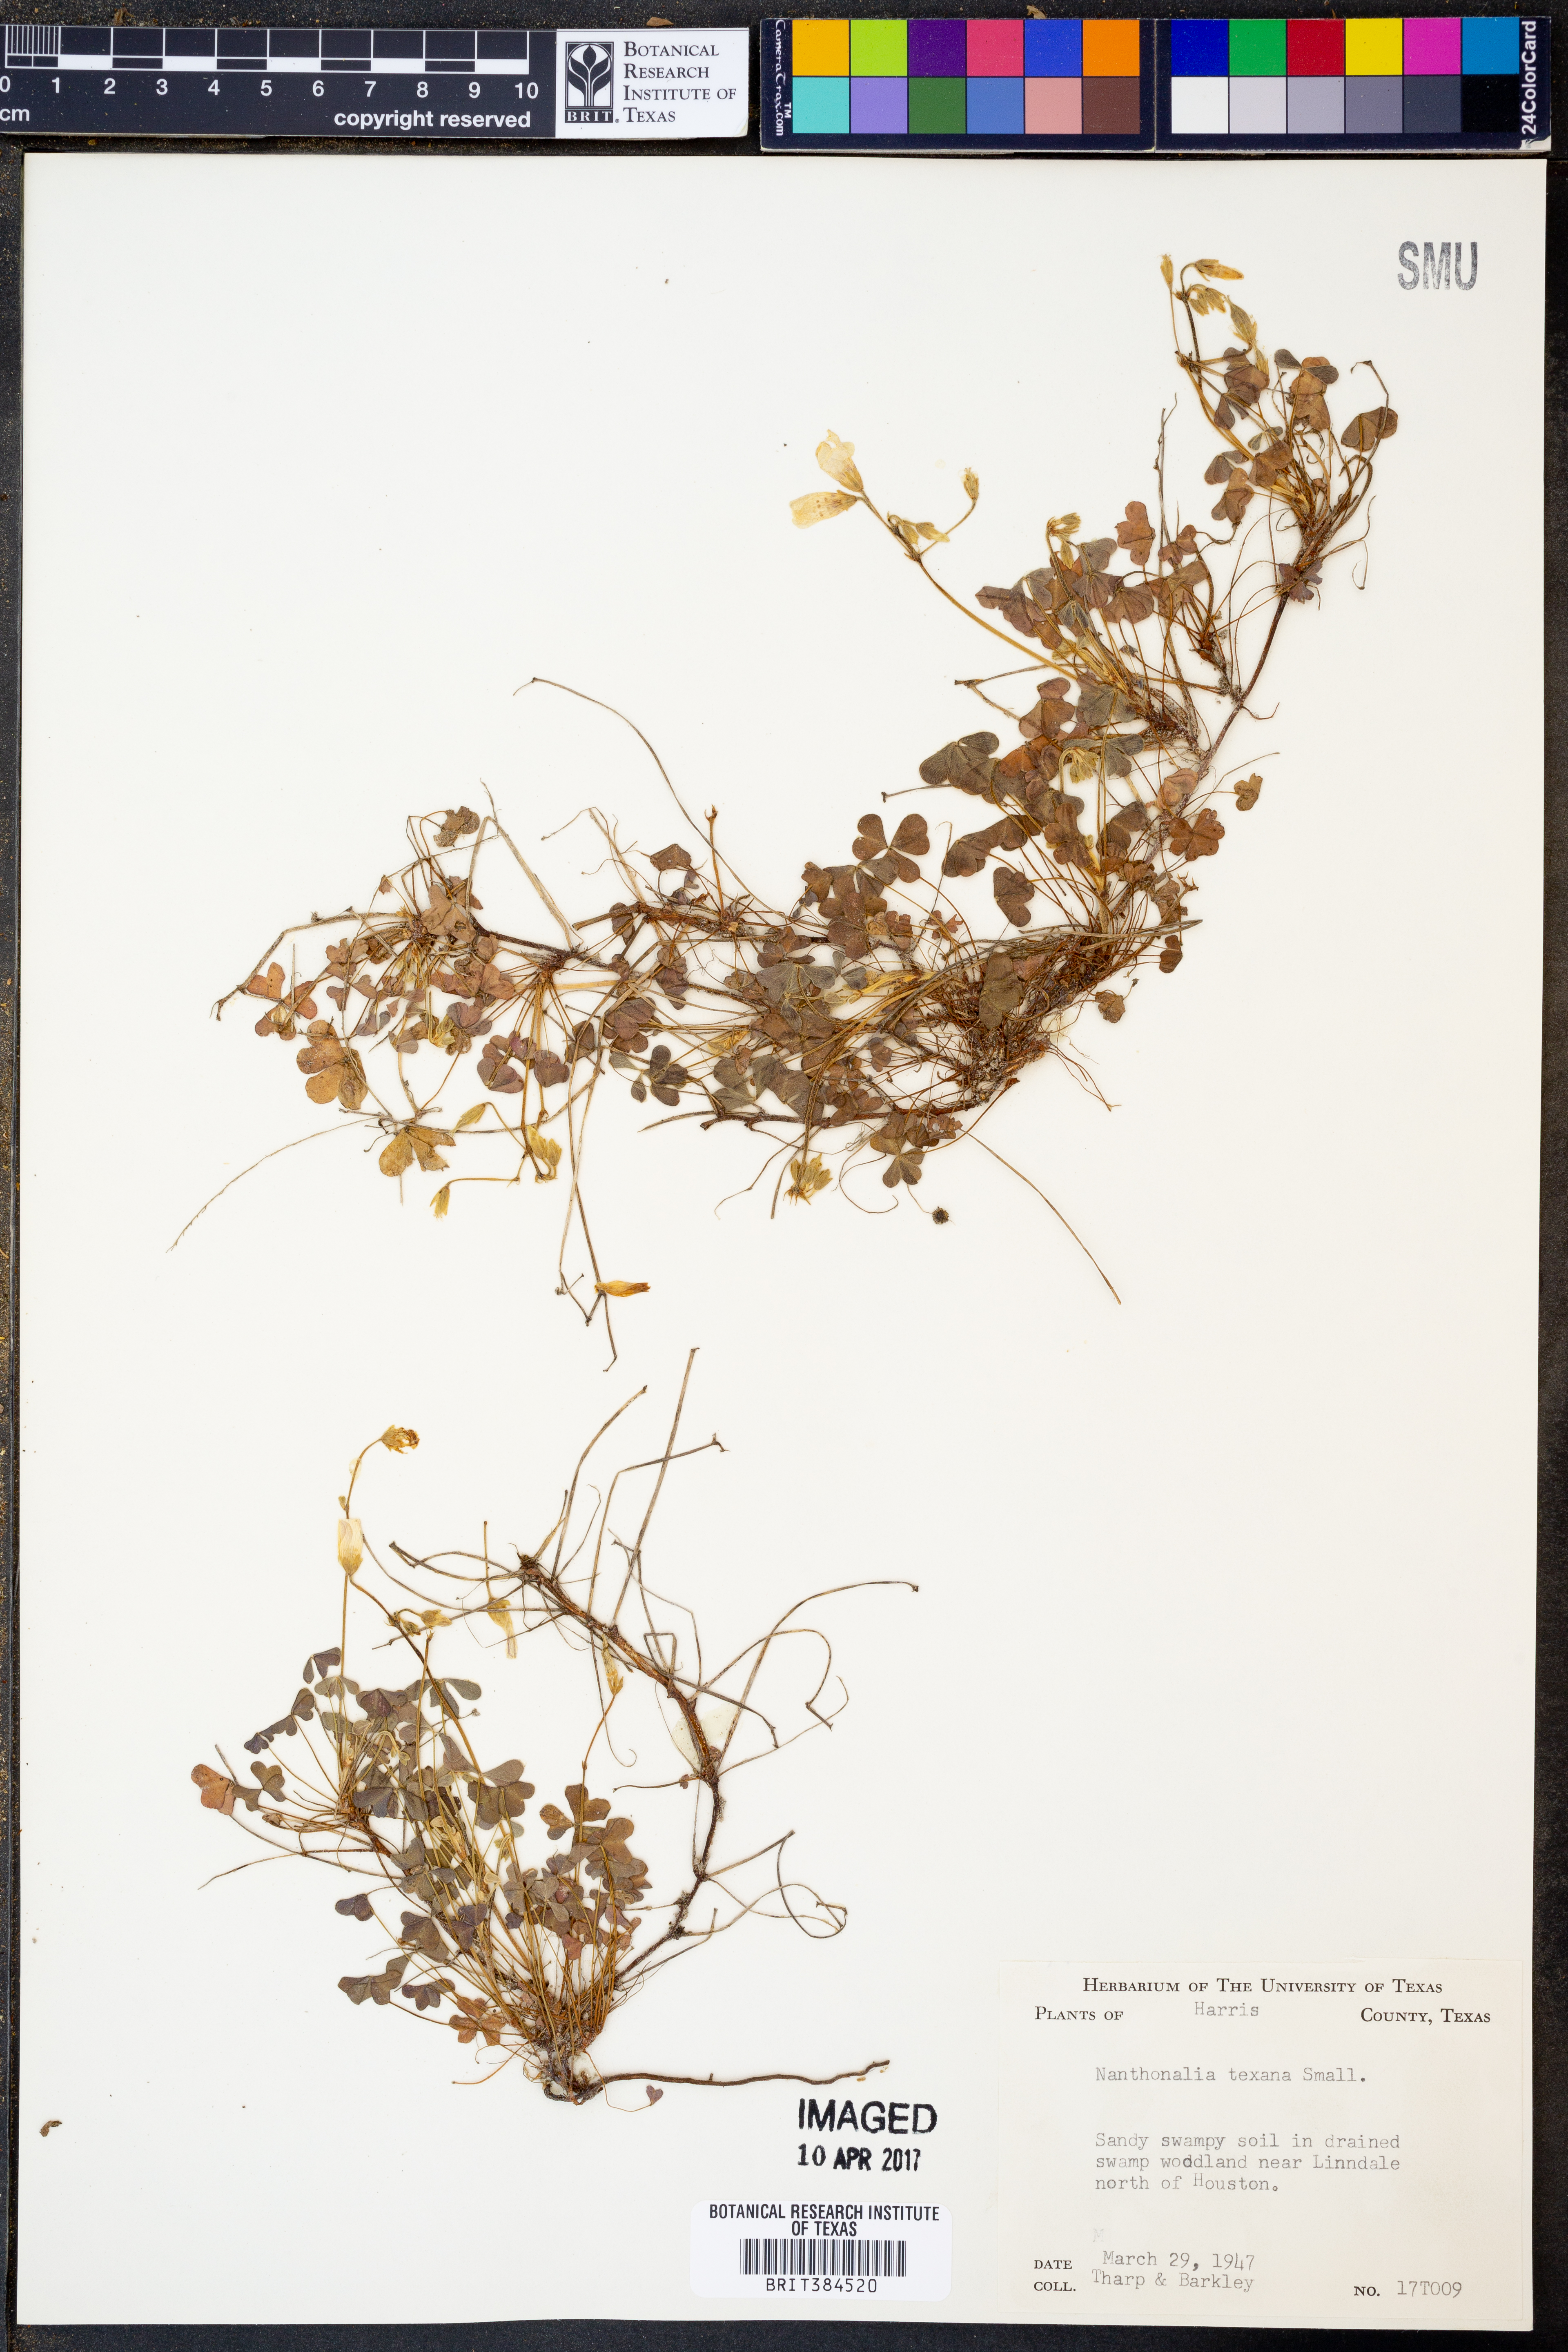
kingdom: Plantae
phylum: Tracheophyta
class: Magnoliopsida
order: Oxalidales
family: Oxalidaceae
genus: Oxalis
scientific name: Oxalis texana
